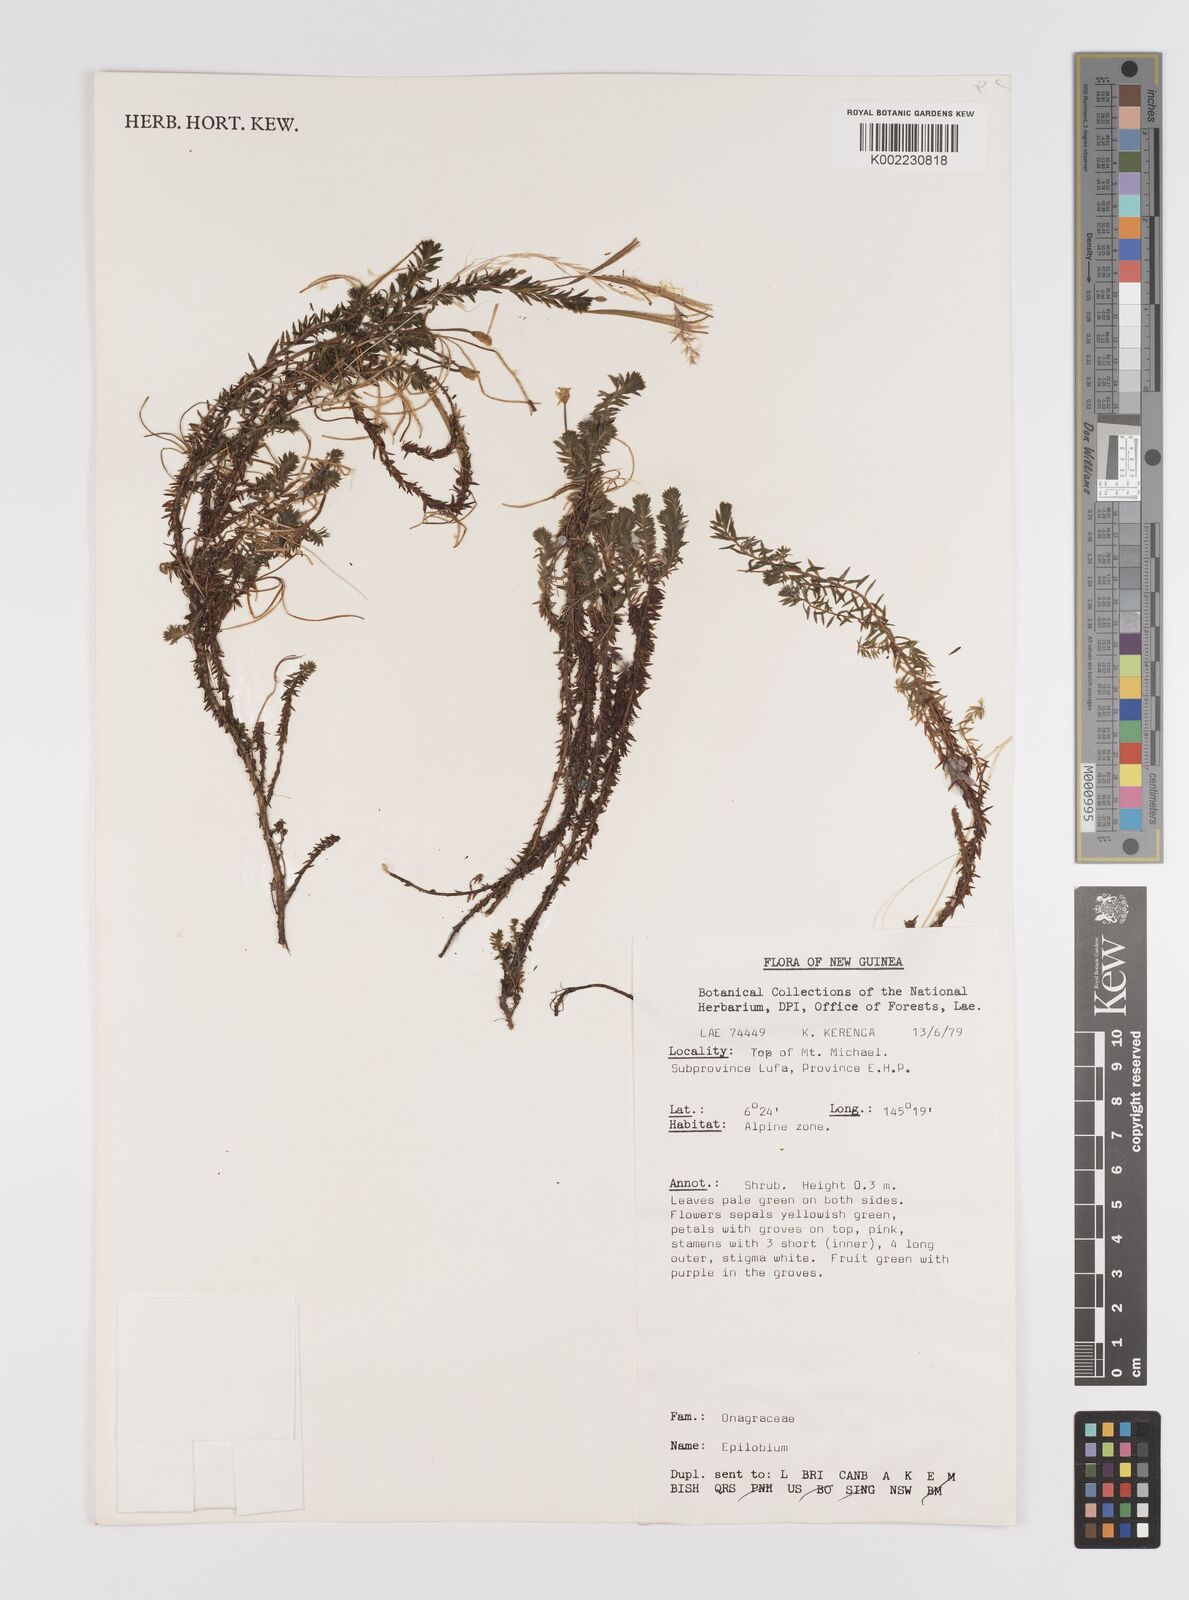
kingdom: Plantae
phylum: Tracheophyta
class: Magnoliopsida
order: Myrtales
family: Onagraceae
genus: Epilobium
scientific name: Epilobium
